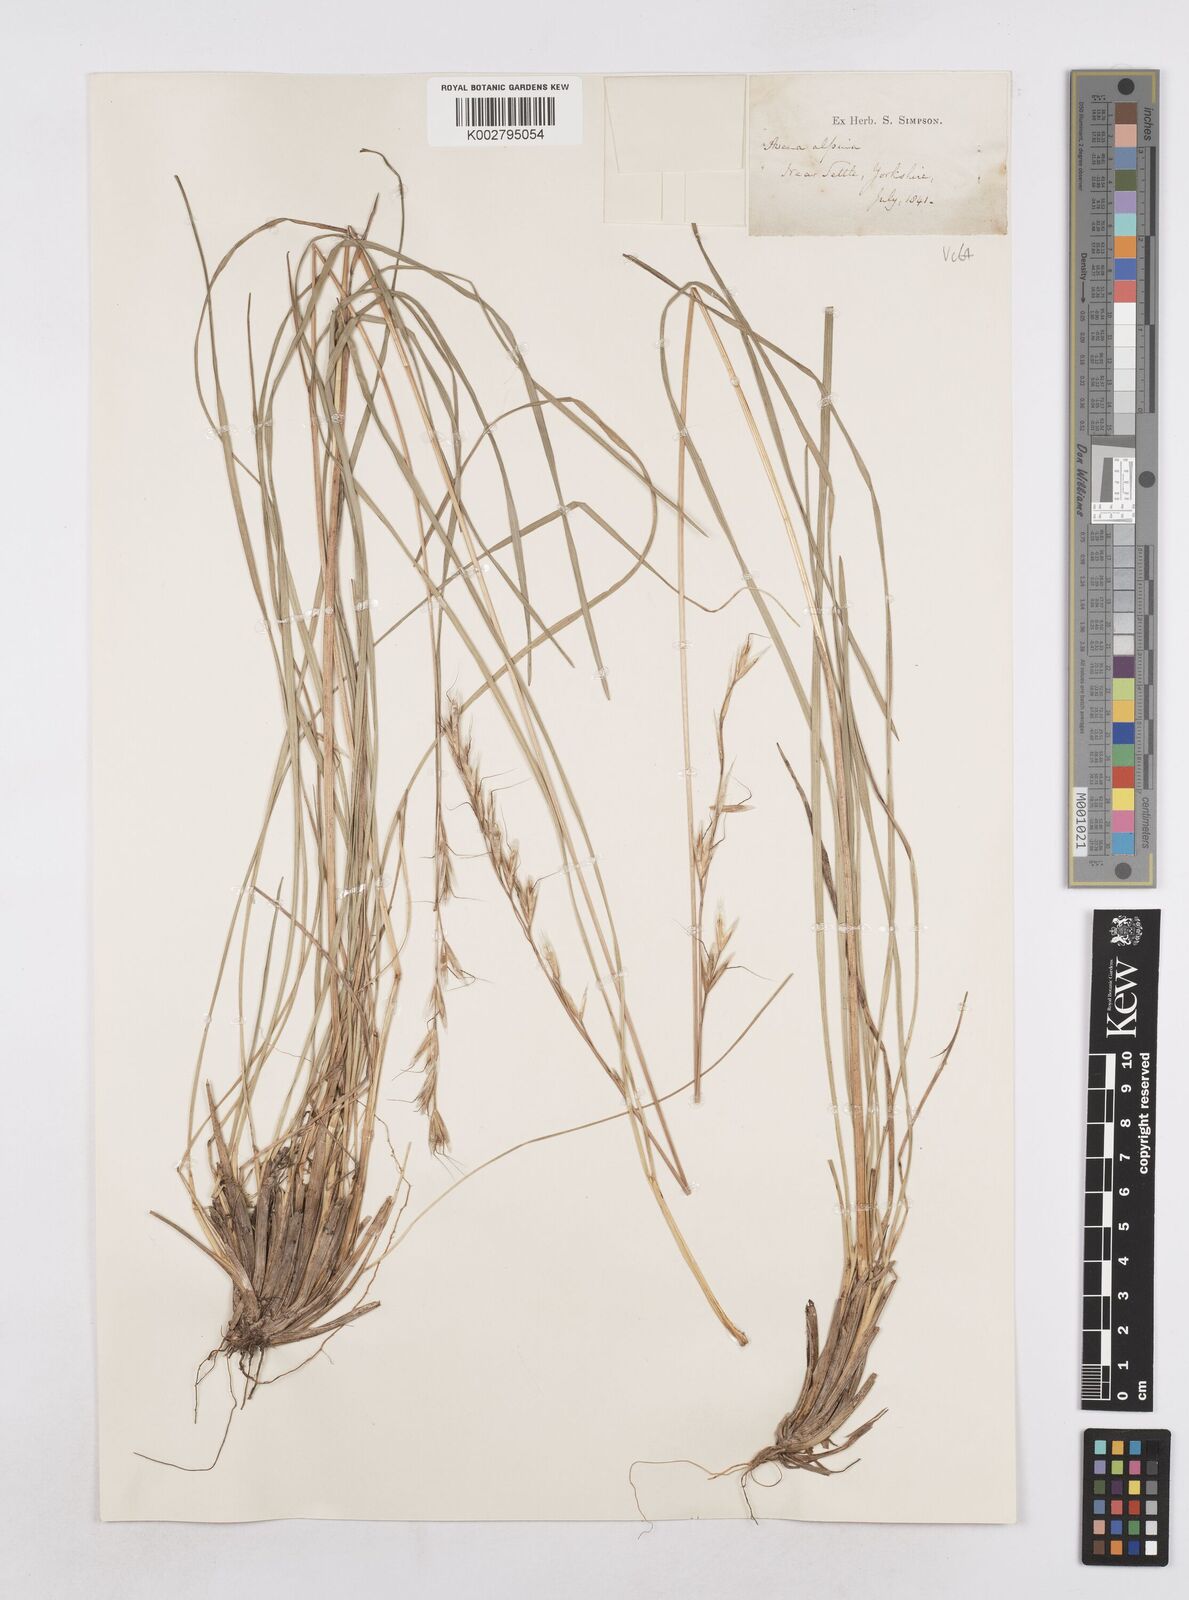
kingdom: Plantae
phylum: Tracheophyta
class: Liliopsida
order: Poales
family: Poaceae
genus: Helictochloa
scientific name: Helictochloa pratensis
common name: Meadow oat grass
